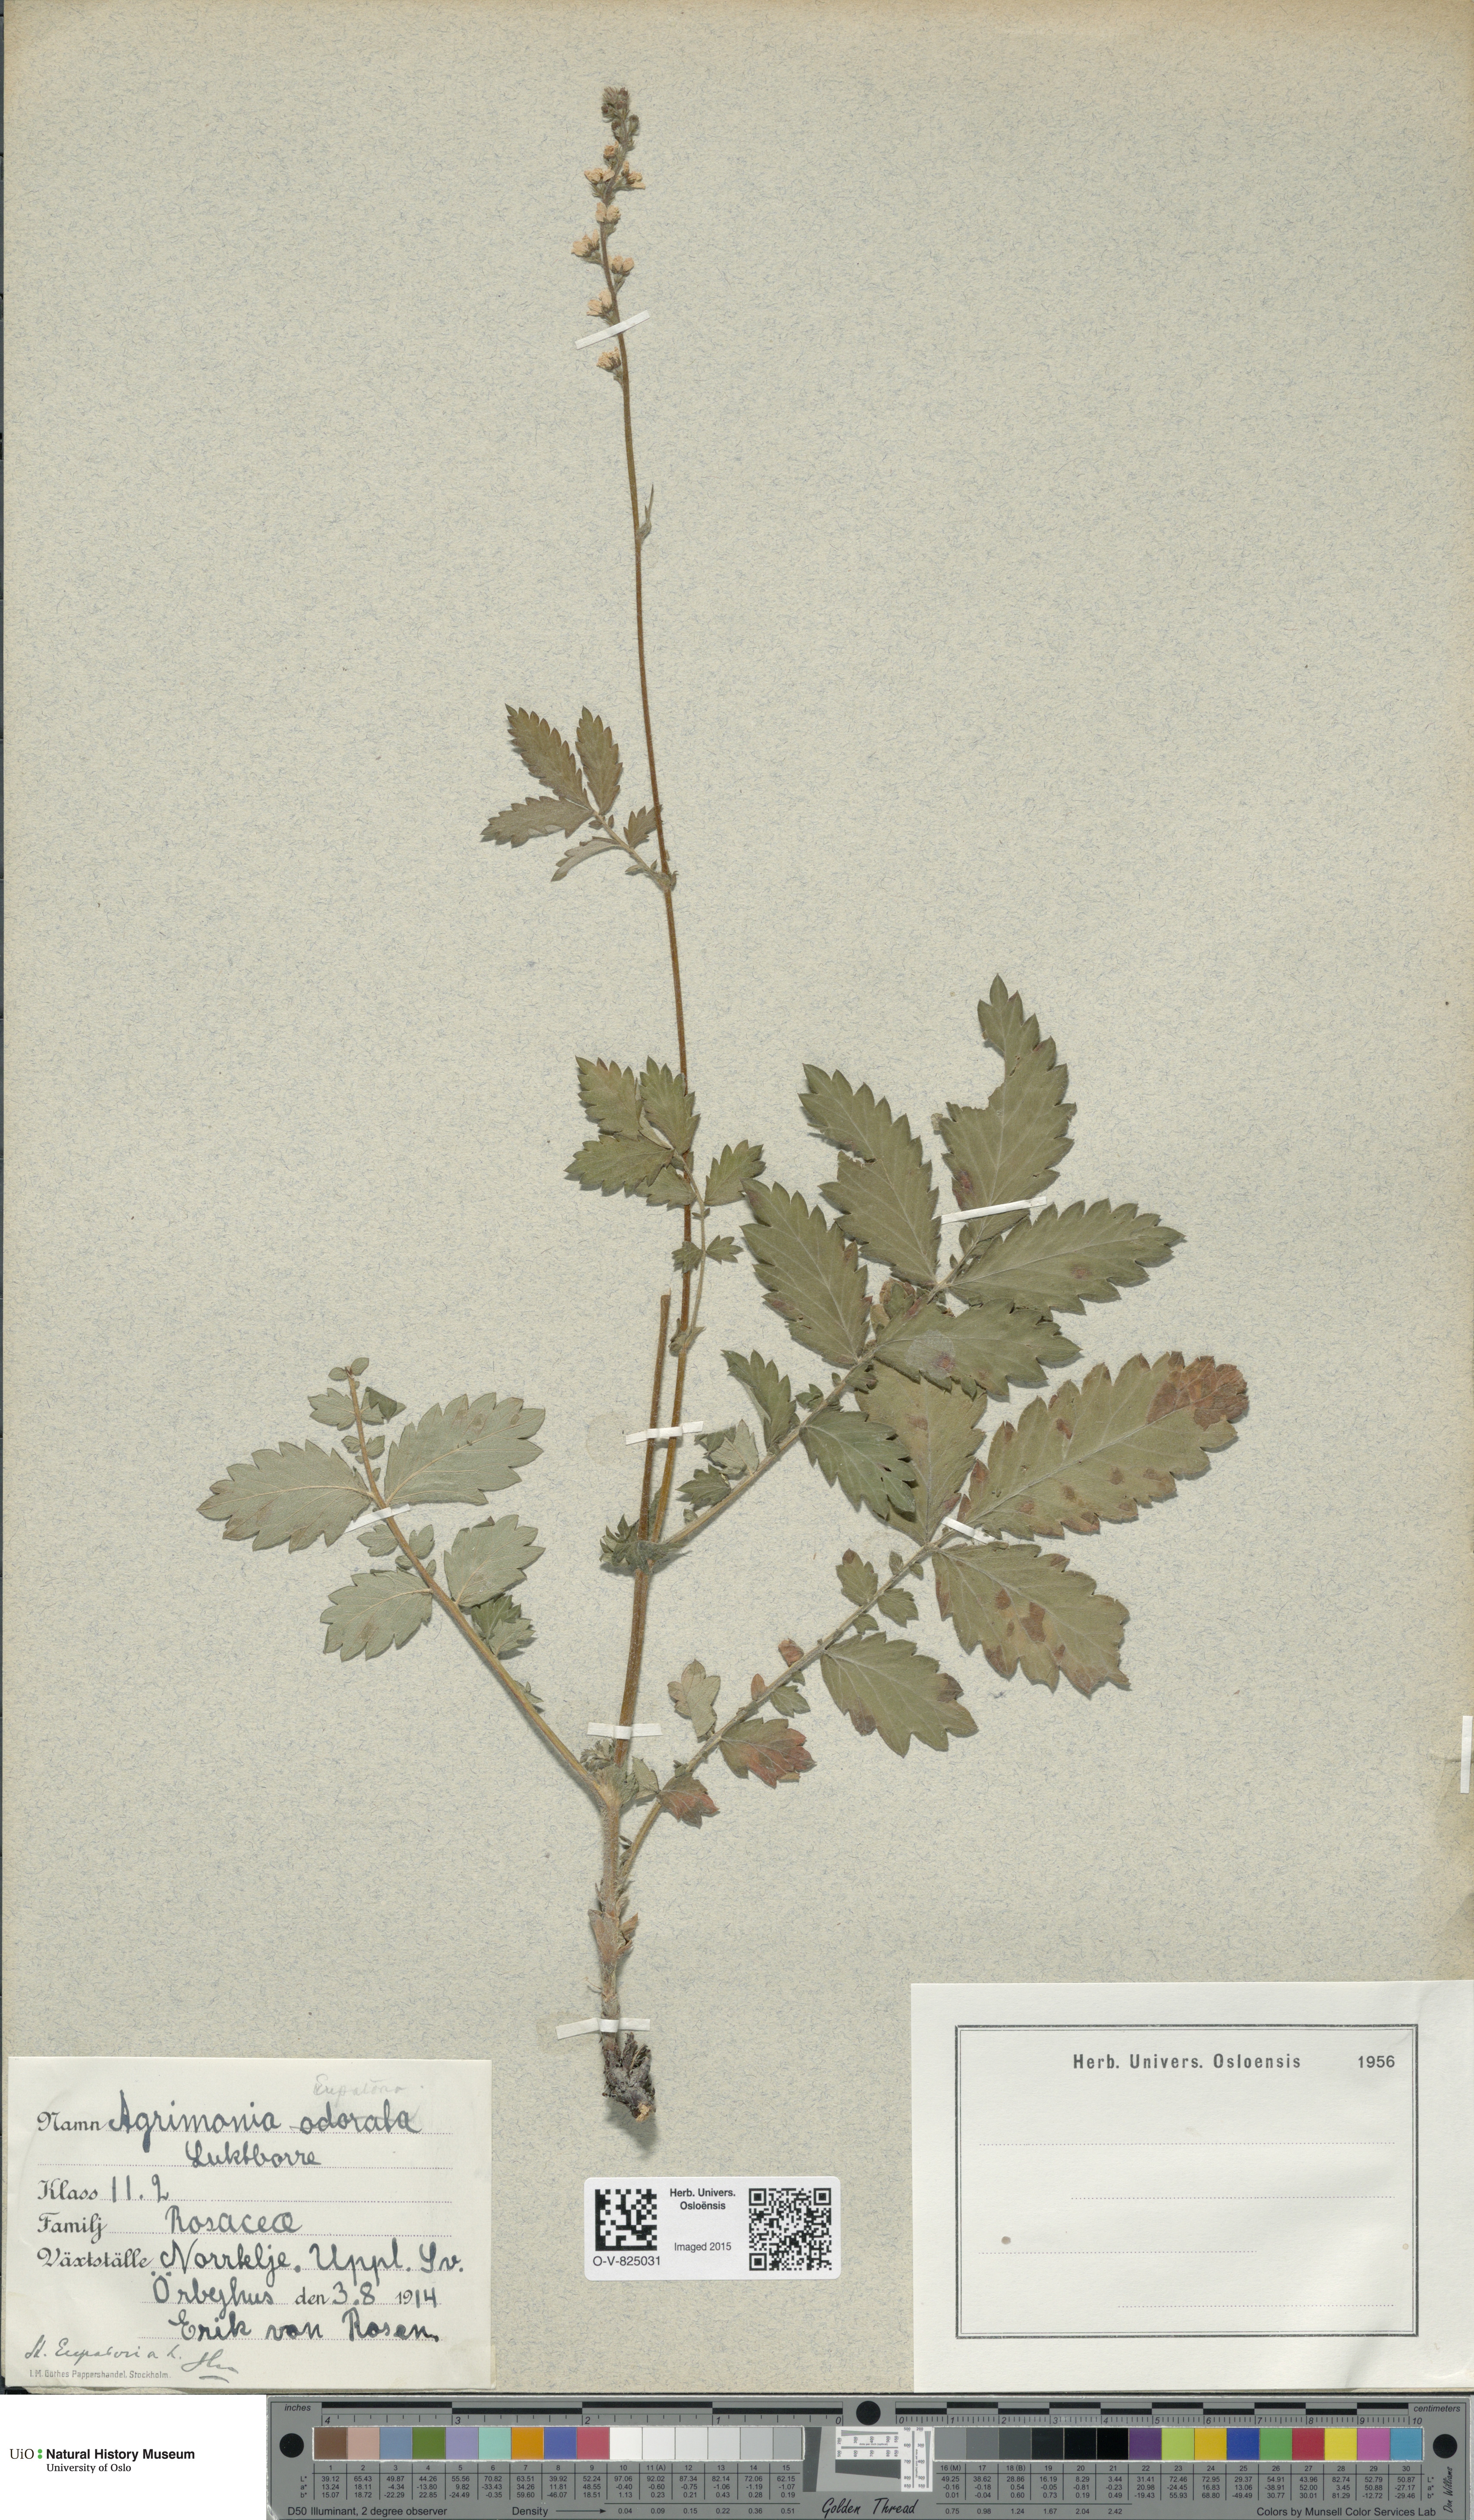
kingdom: Plantae
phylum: Tracheophyta
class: Magnoliopsida
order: Rosales
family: Rosaceae
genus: Agrimonia
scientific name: Agrimonia procera
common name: Fragrant agrimony
